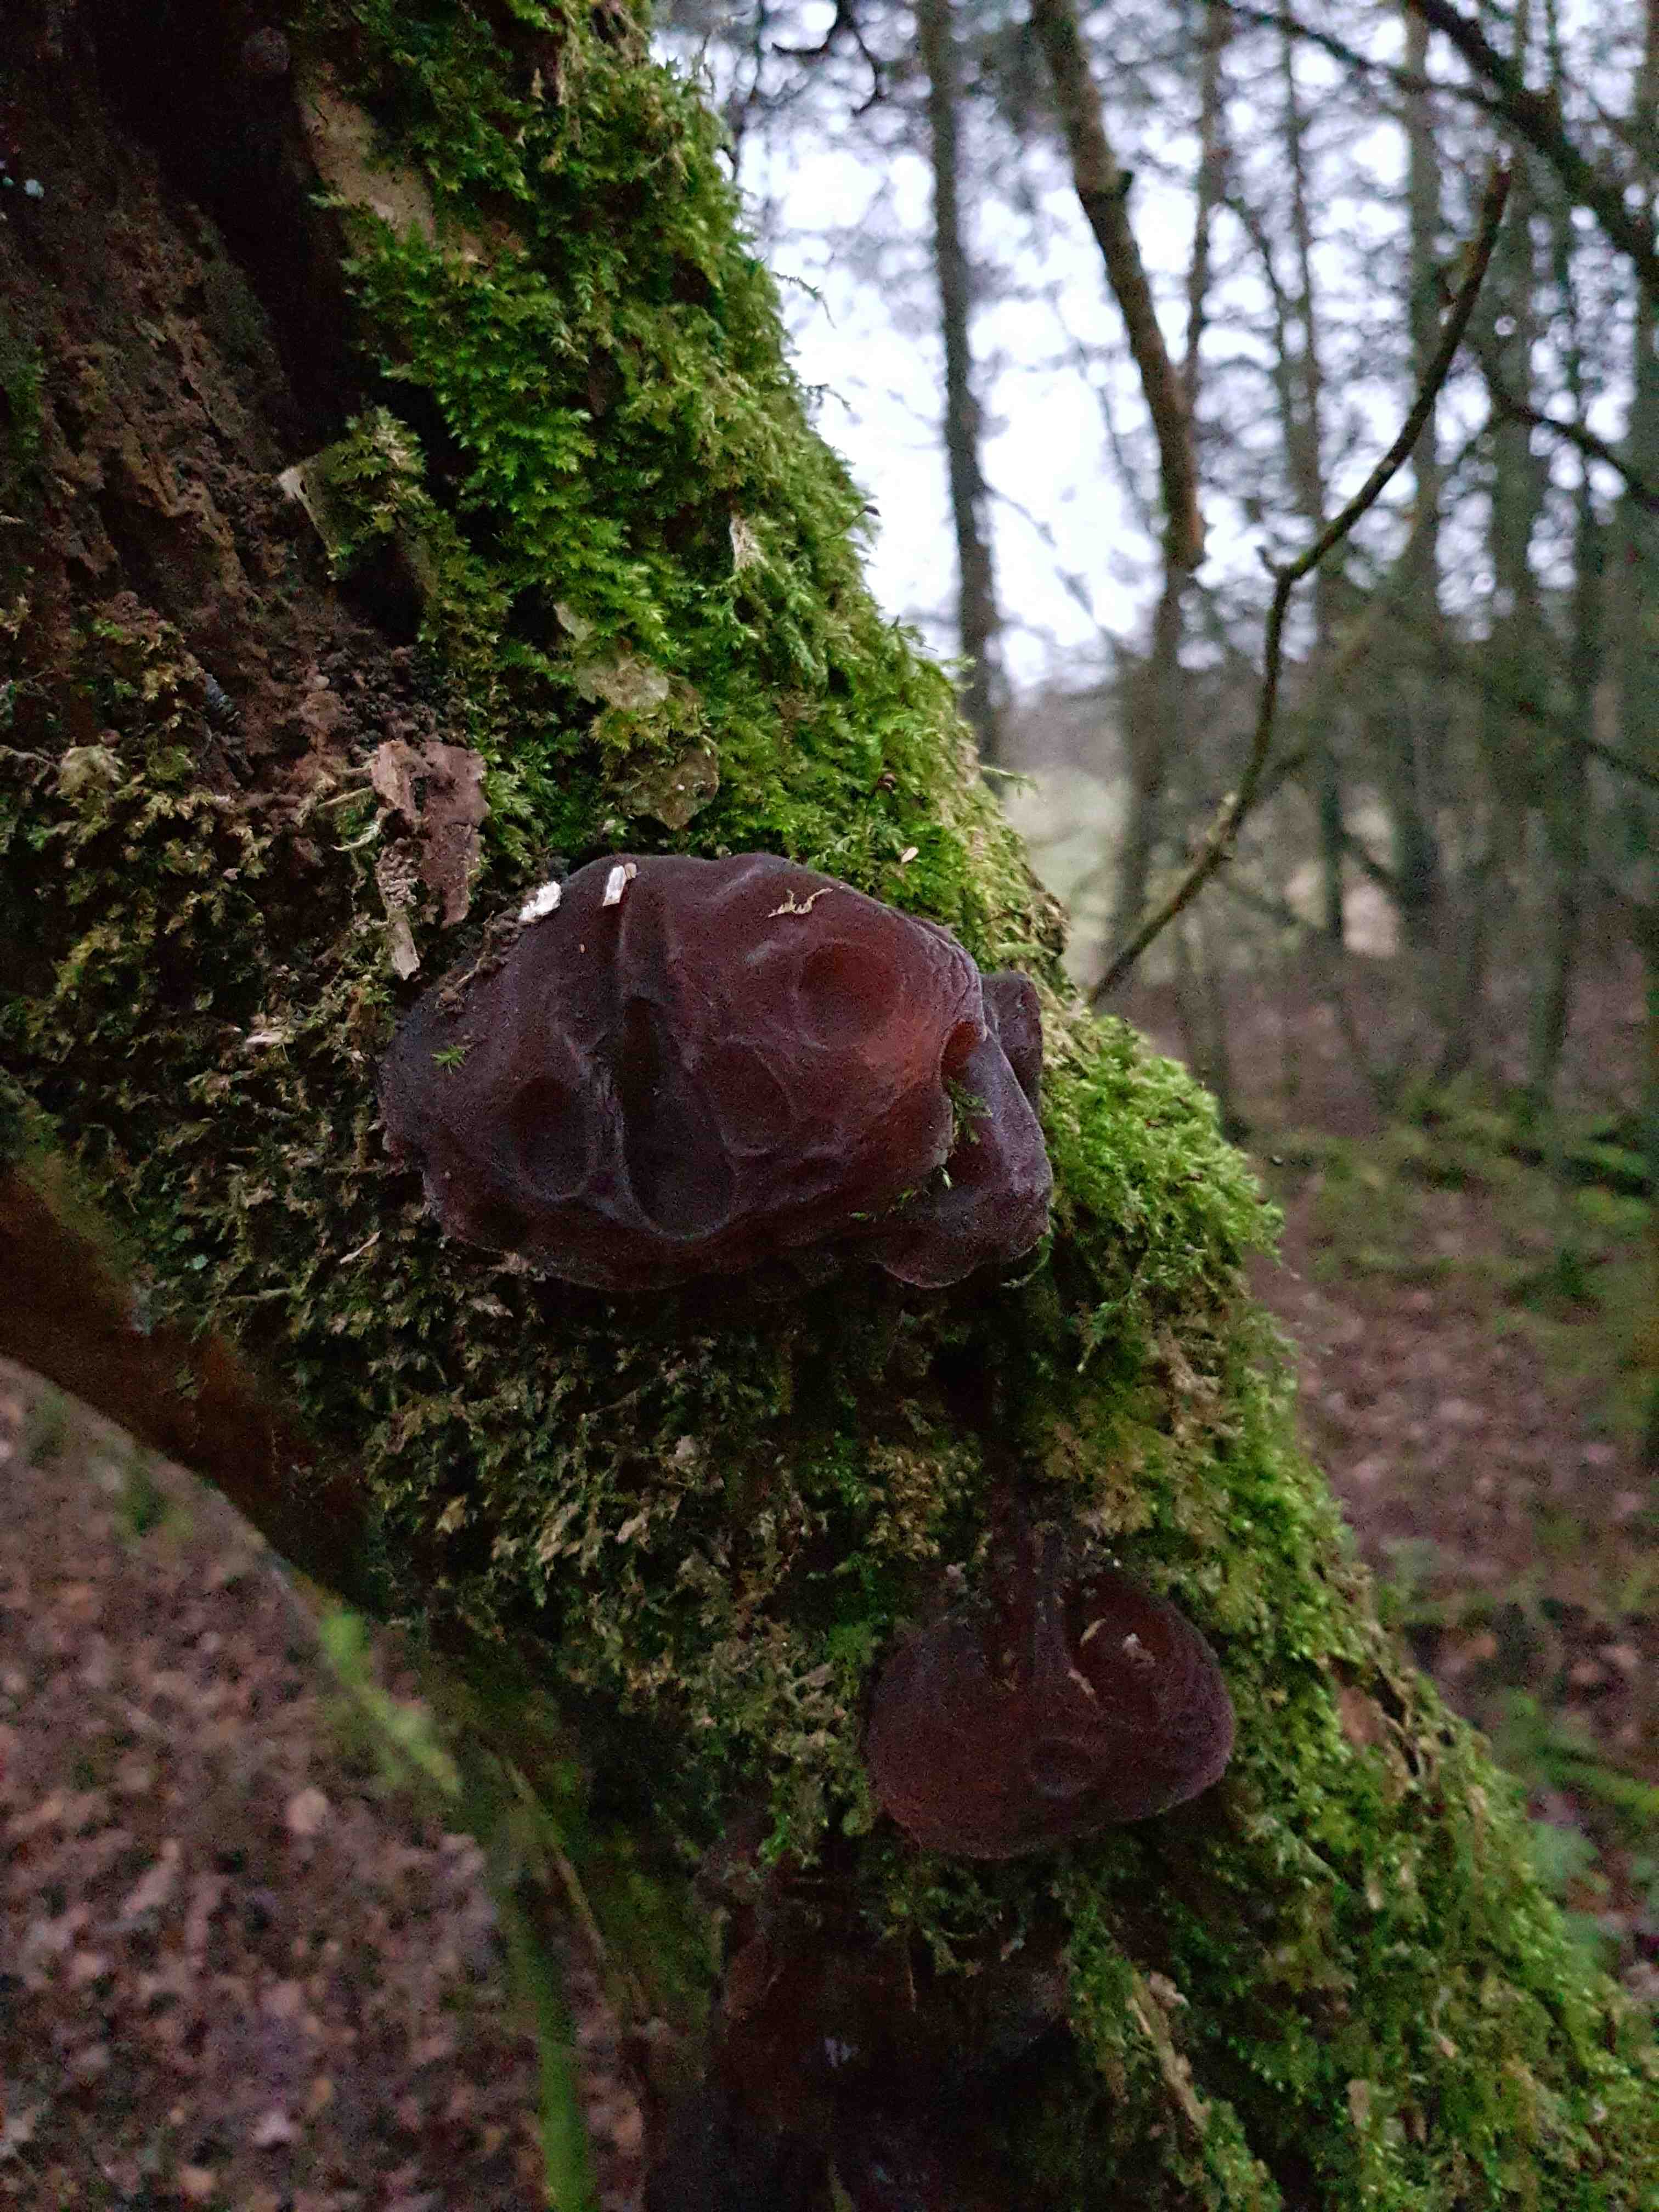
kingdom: Fungi
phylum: Basidiomycota
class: Agaricomycetes
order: Auriculariales
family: Auriculariaceae
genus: Auricularia
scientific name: Auricularia auricula-judae
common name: almindelig judasøre
